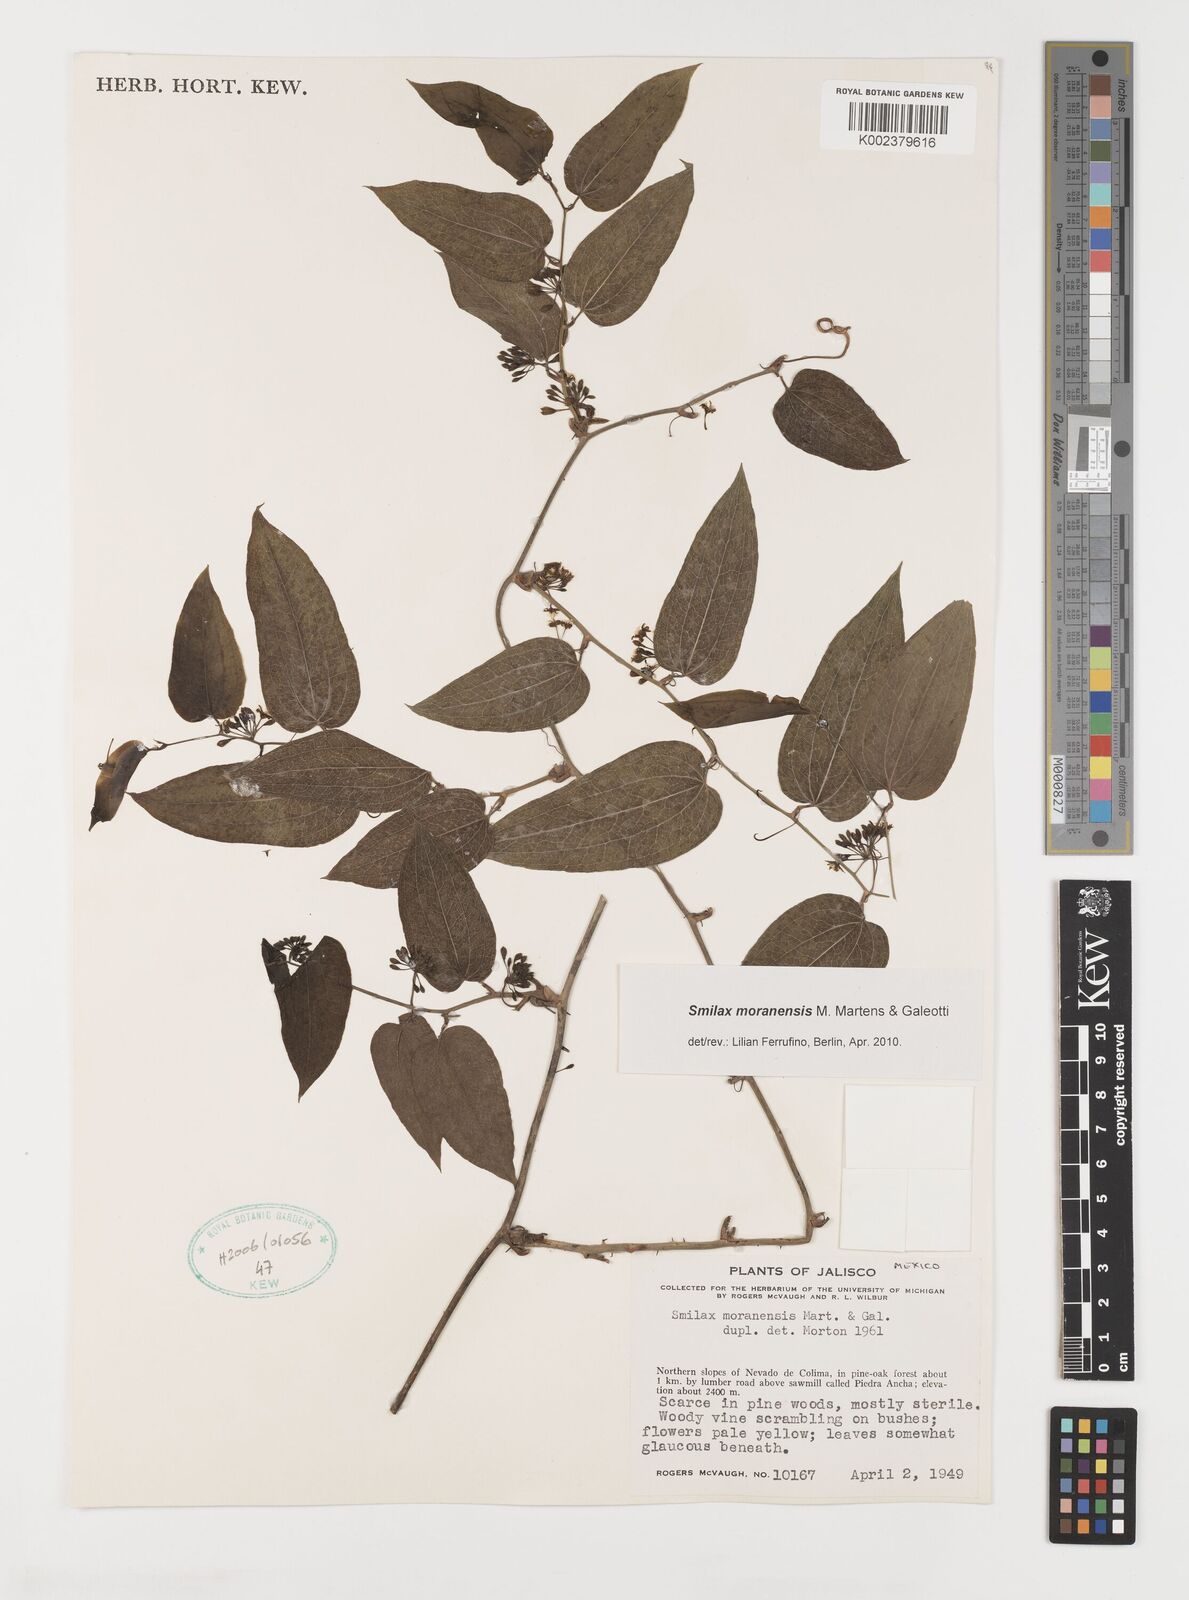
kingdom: Plantae
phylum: Tracheophyta
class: Liliopsida
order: Liliales
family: Smilacaceae
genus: Smilax
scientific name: Smilax moranensis
